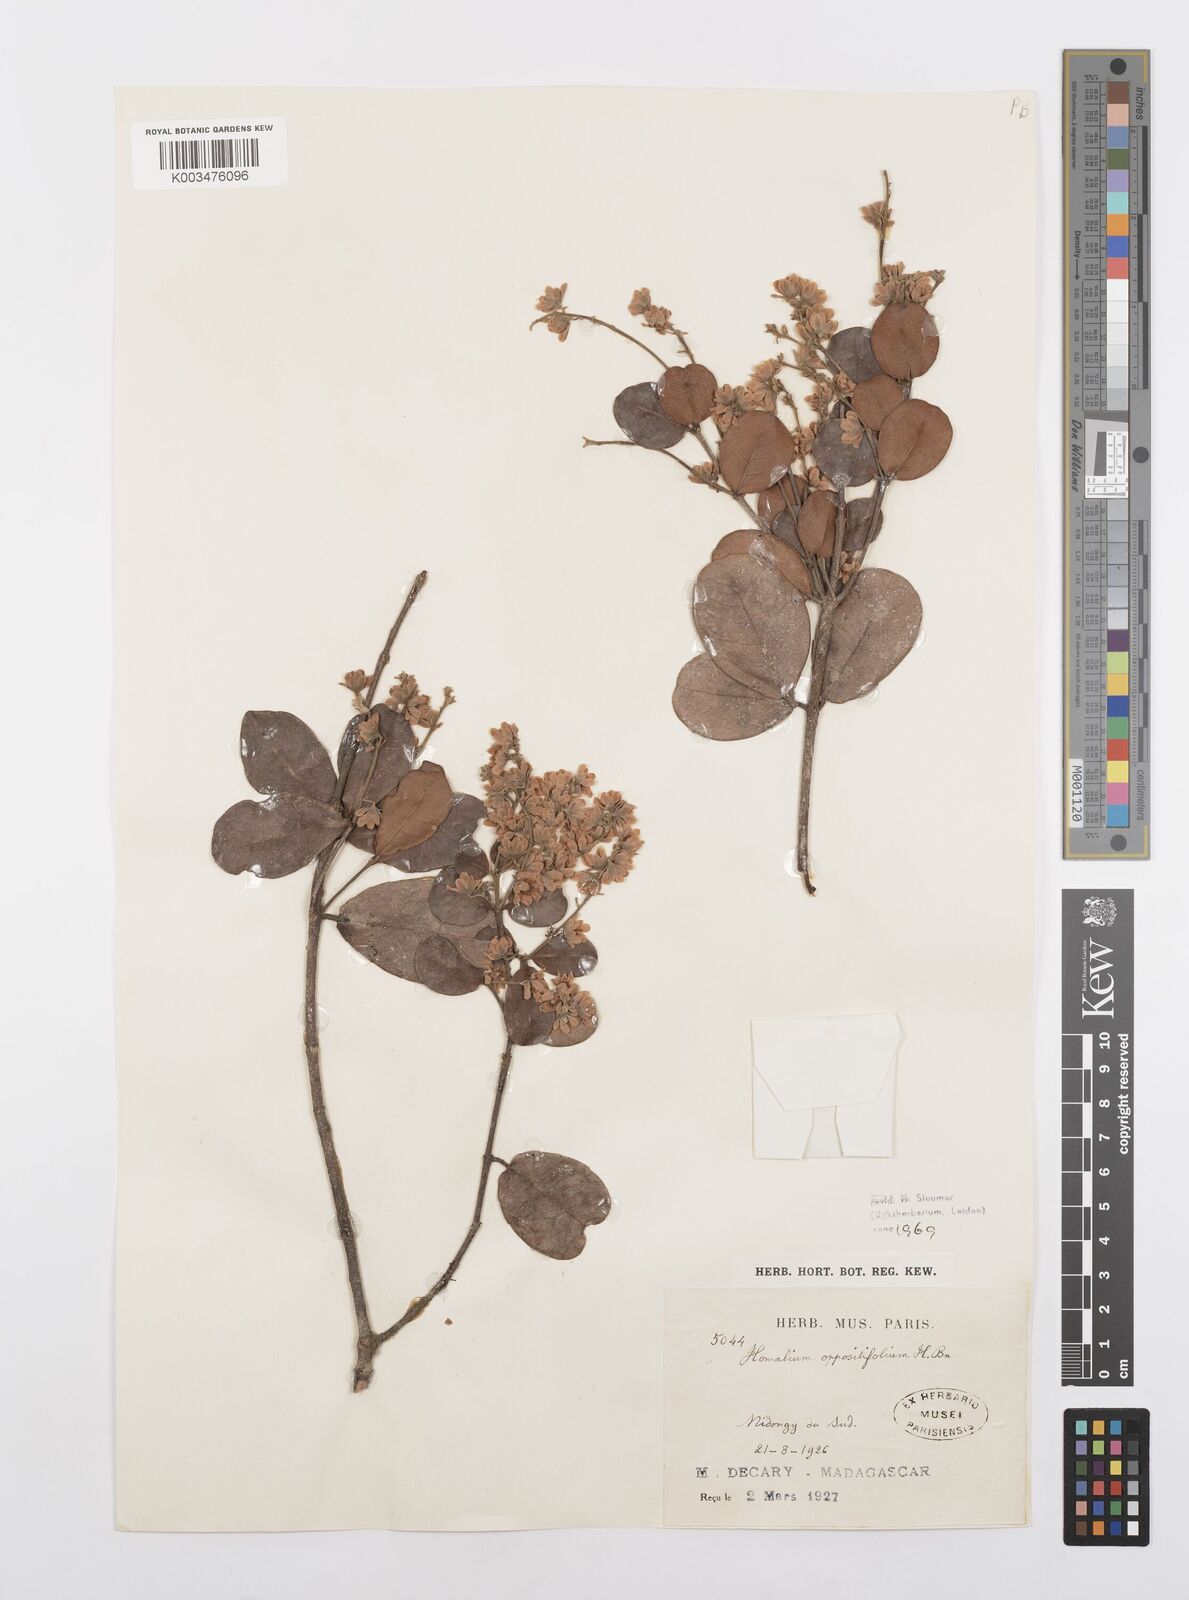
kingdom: Plantae
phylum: Tracheophyta
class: Magnoliopsida
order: Malpighiales
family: Salicaceae
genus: Homalium
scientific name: Homalium oppositifolium
